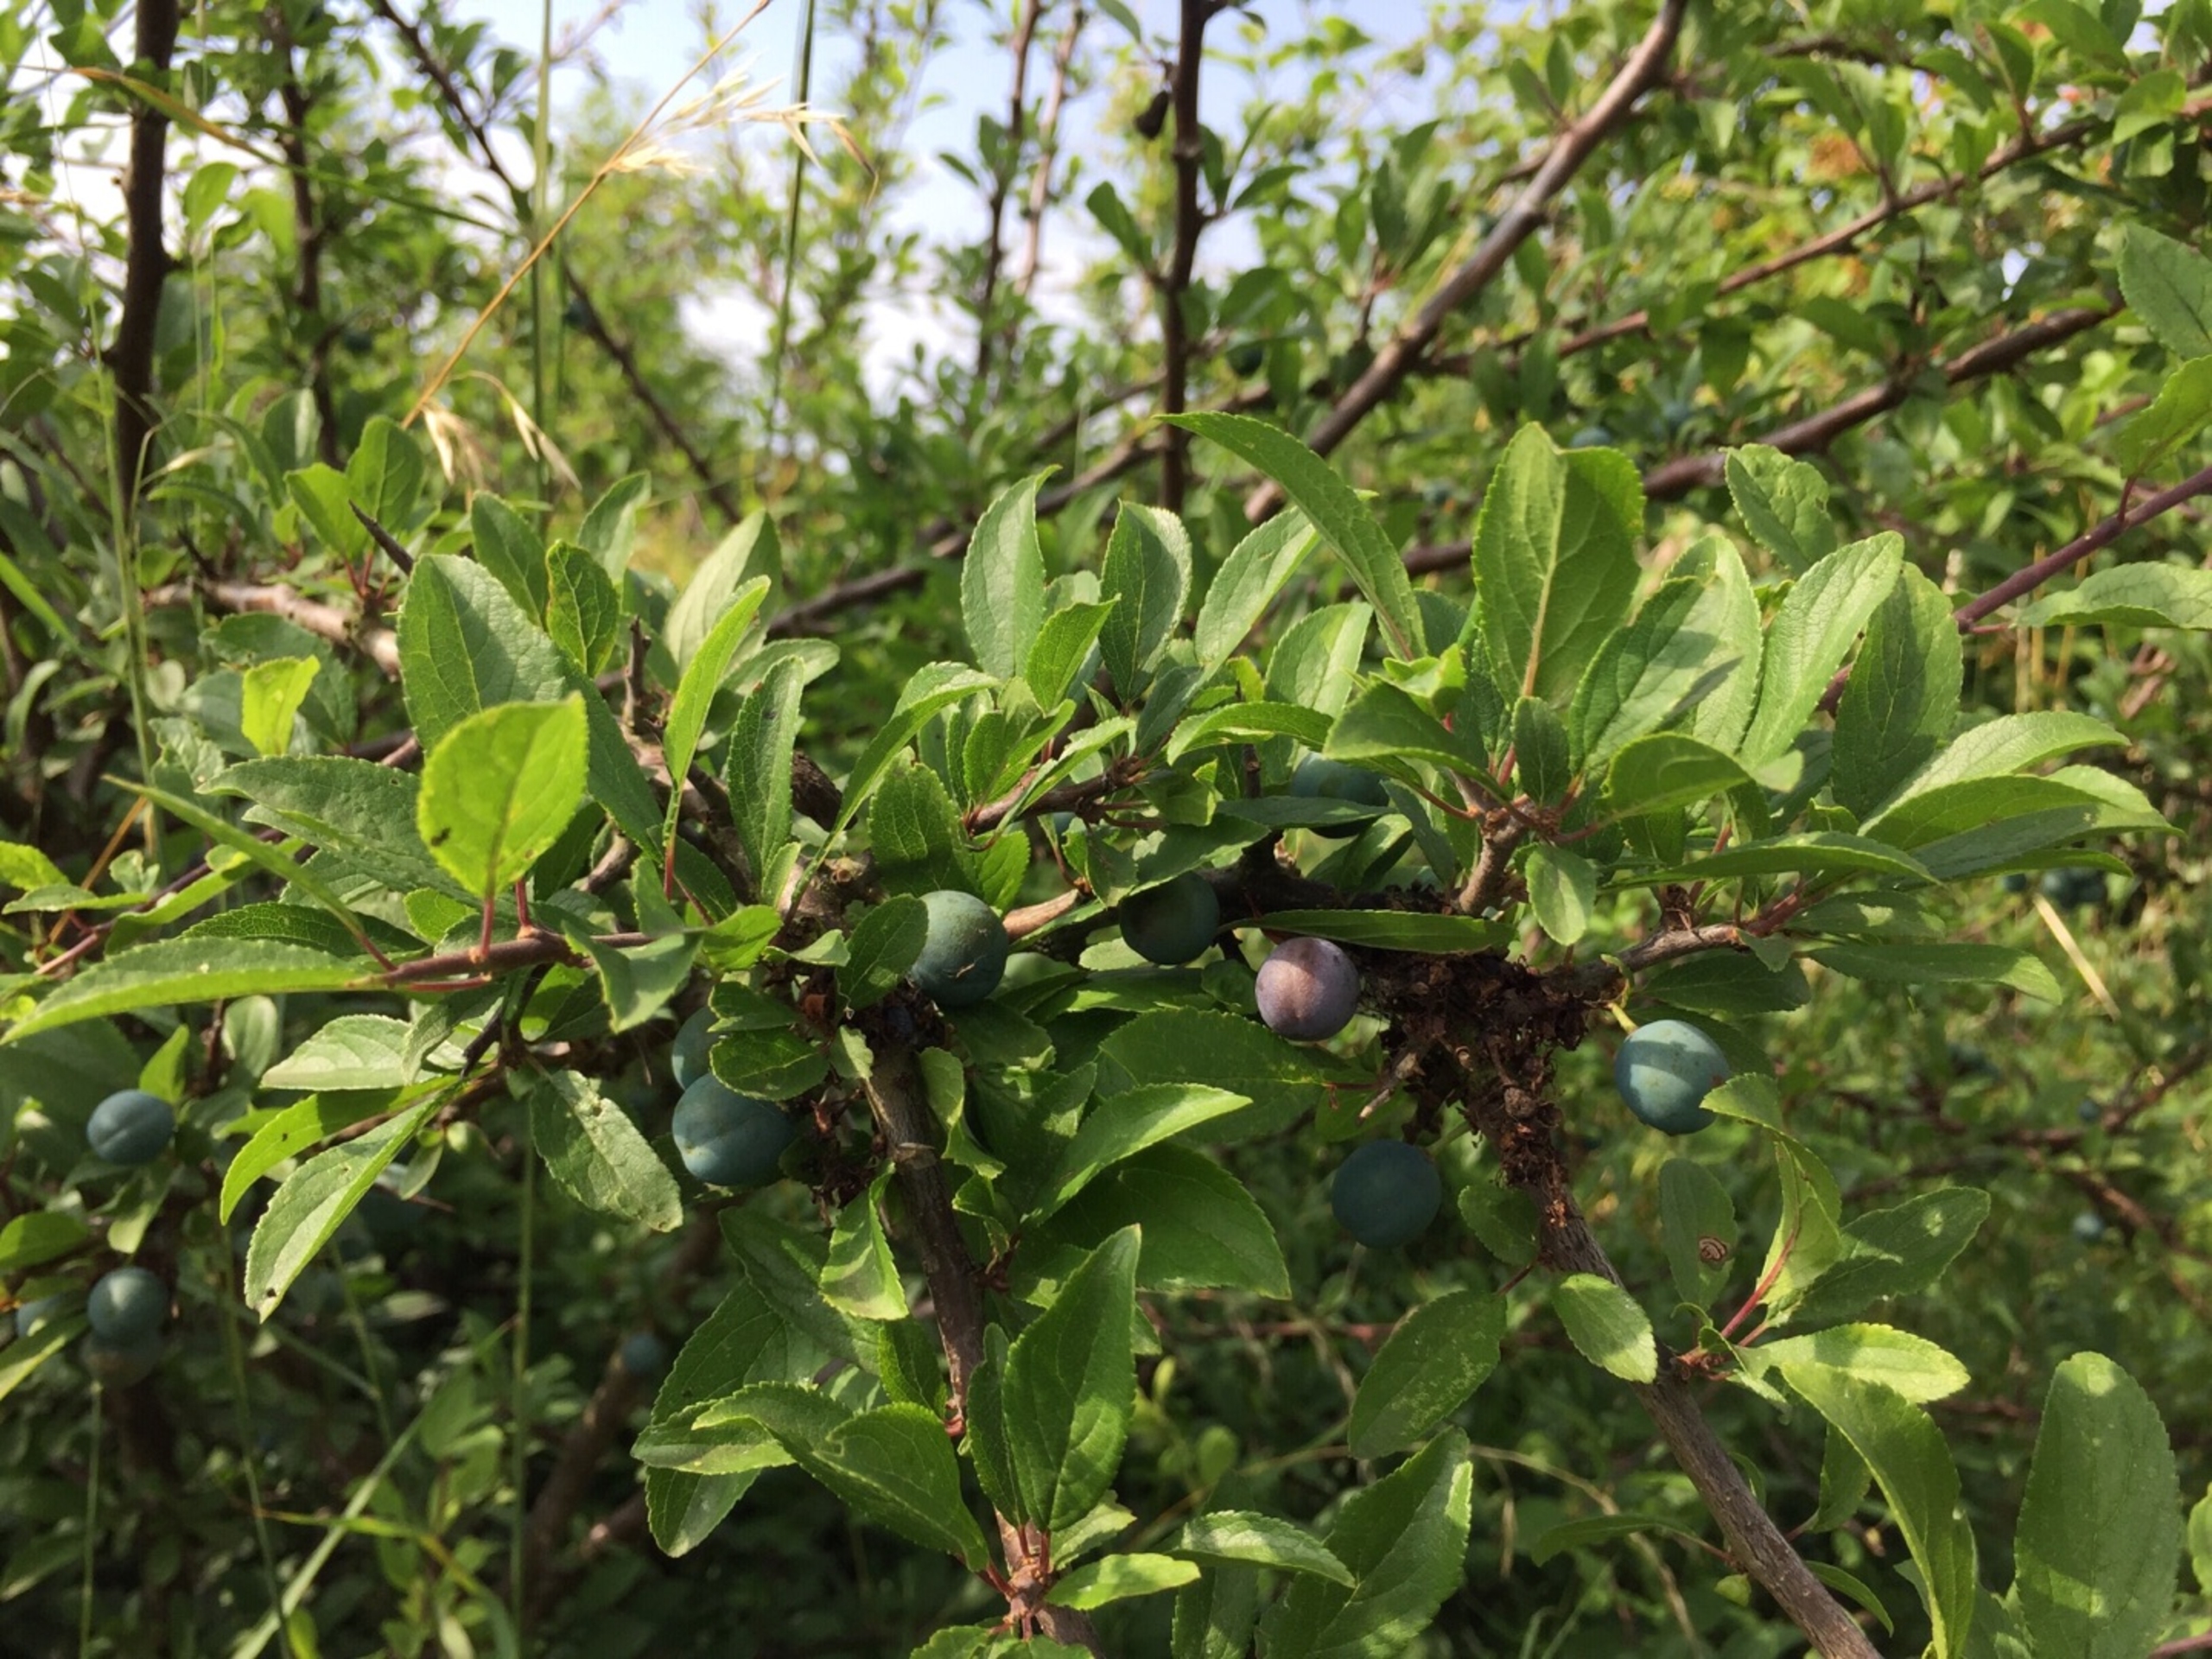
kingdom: Plantae
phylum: Tracheophyta
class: Magnoliopsida
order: Rosales
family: Rosaceae
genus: Prunus
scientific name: Prunus spinosa
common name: Slåen
